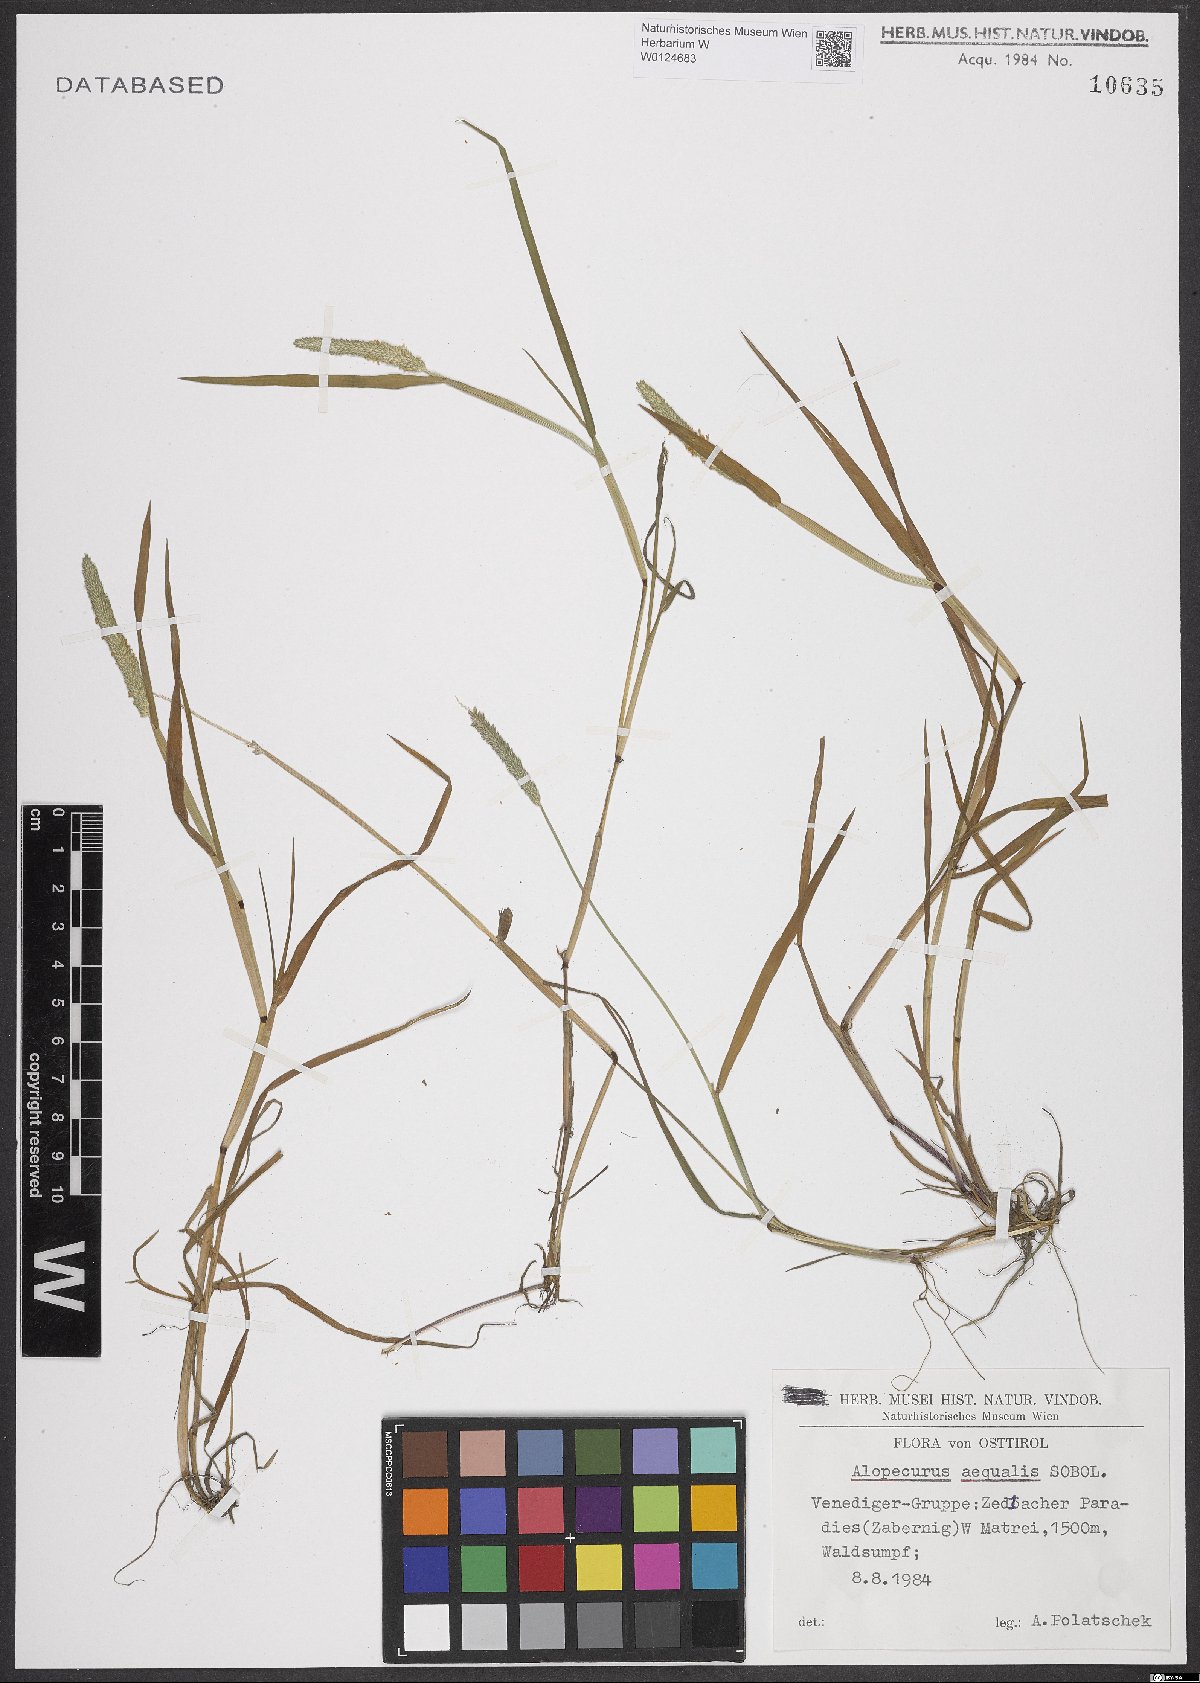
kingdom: Plantae
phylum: Tracheophyta
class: Liliopsida
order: Poales
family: Poaceae
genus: Alopecurus
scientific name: Alopecurus aequalis
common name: Orange foxtail
